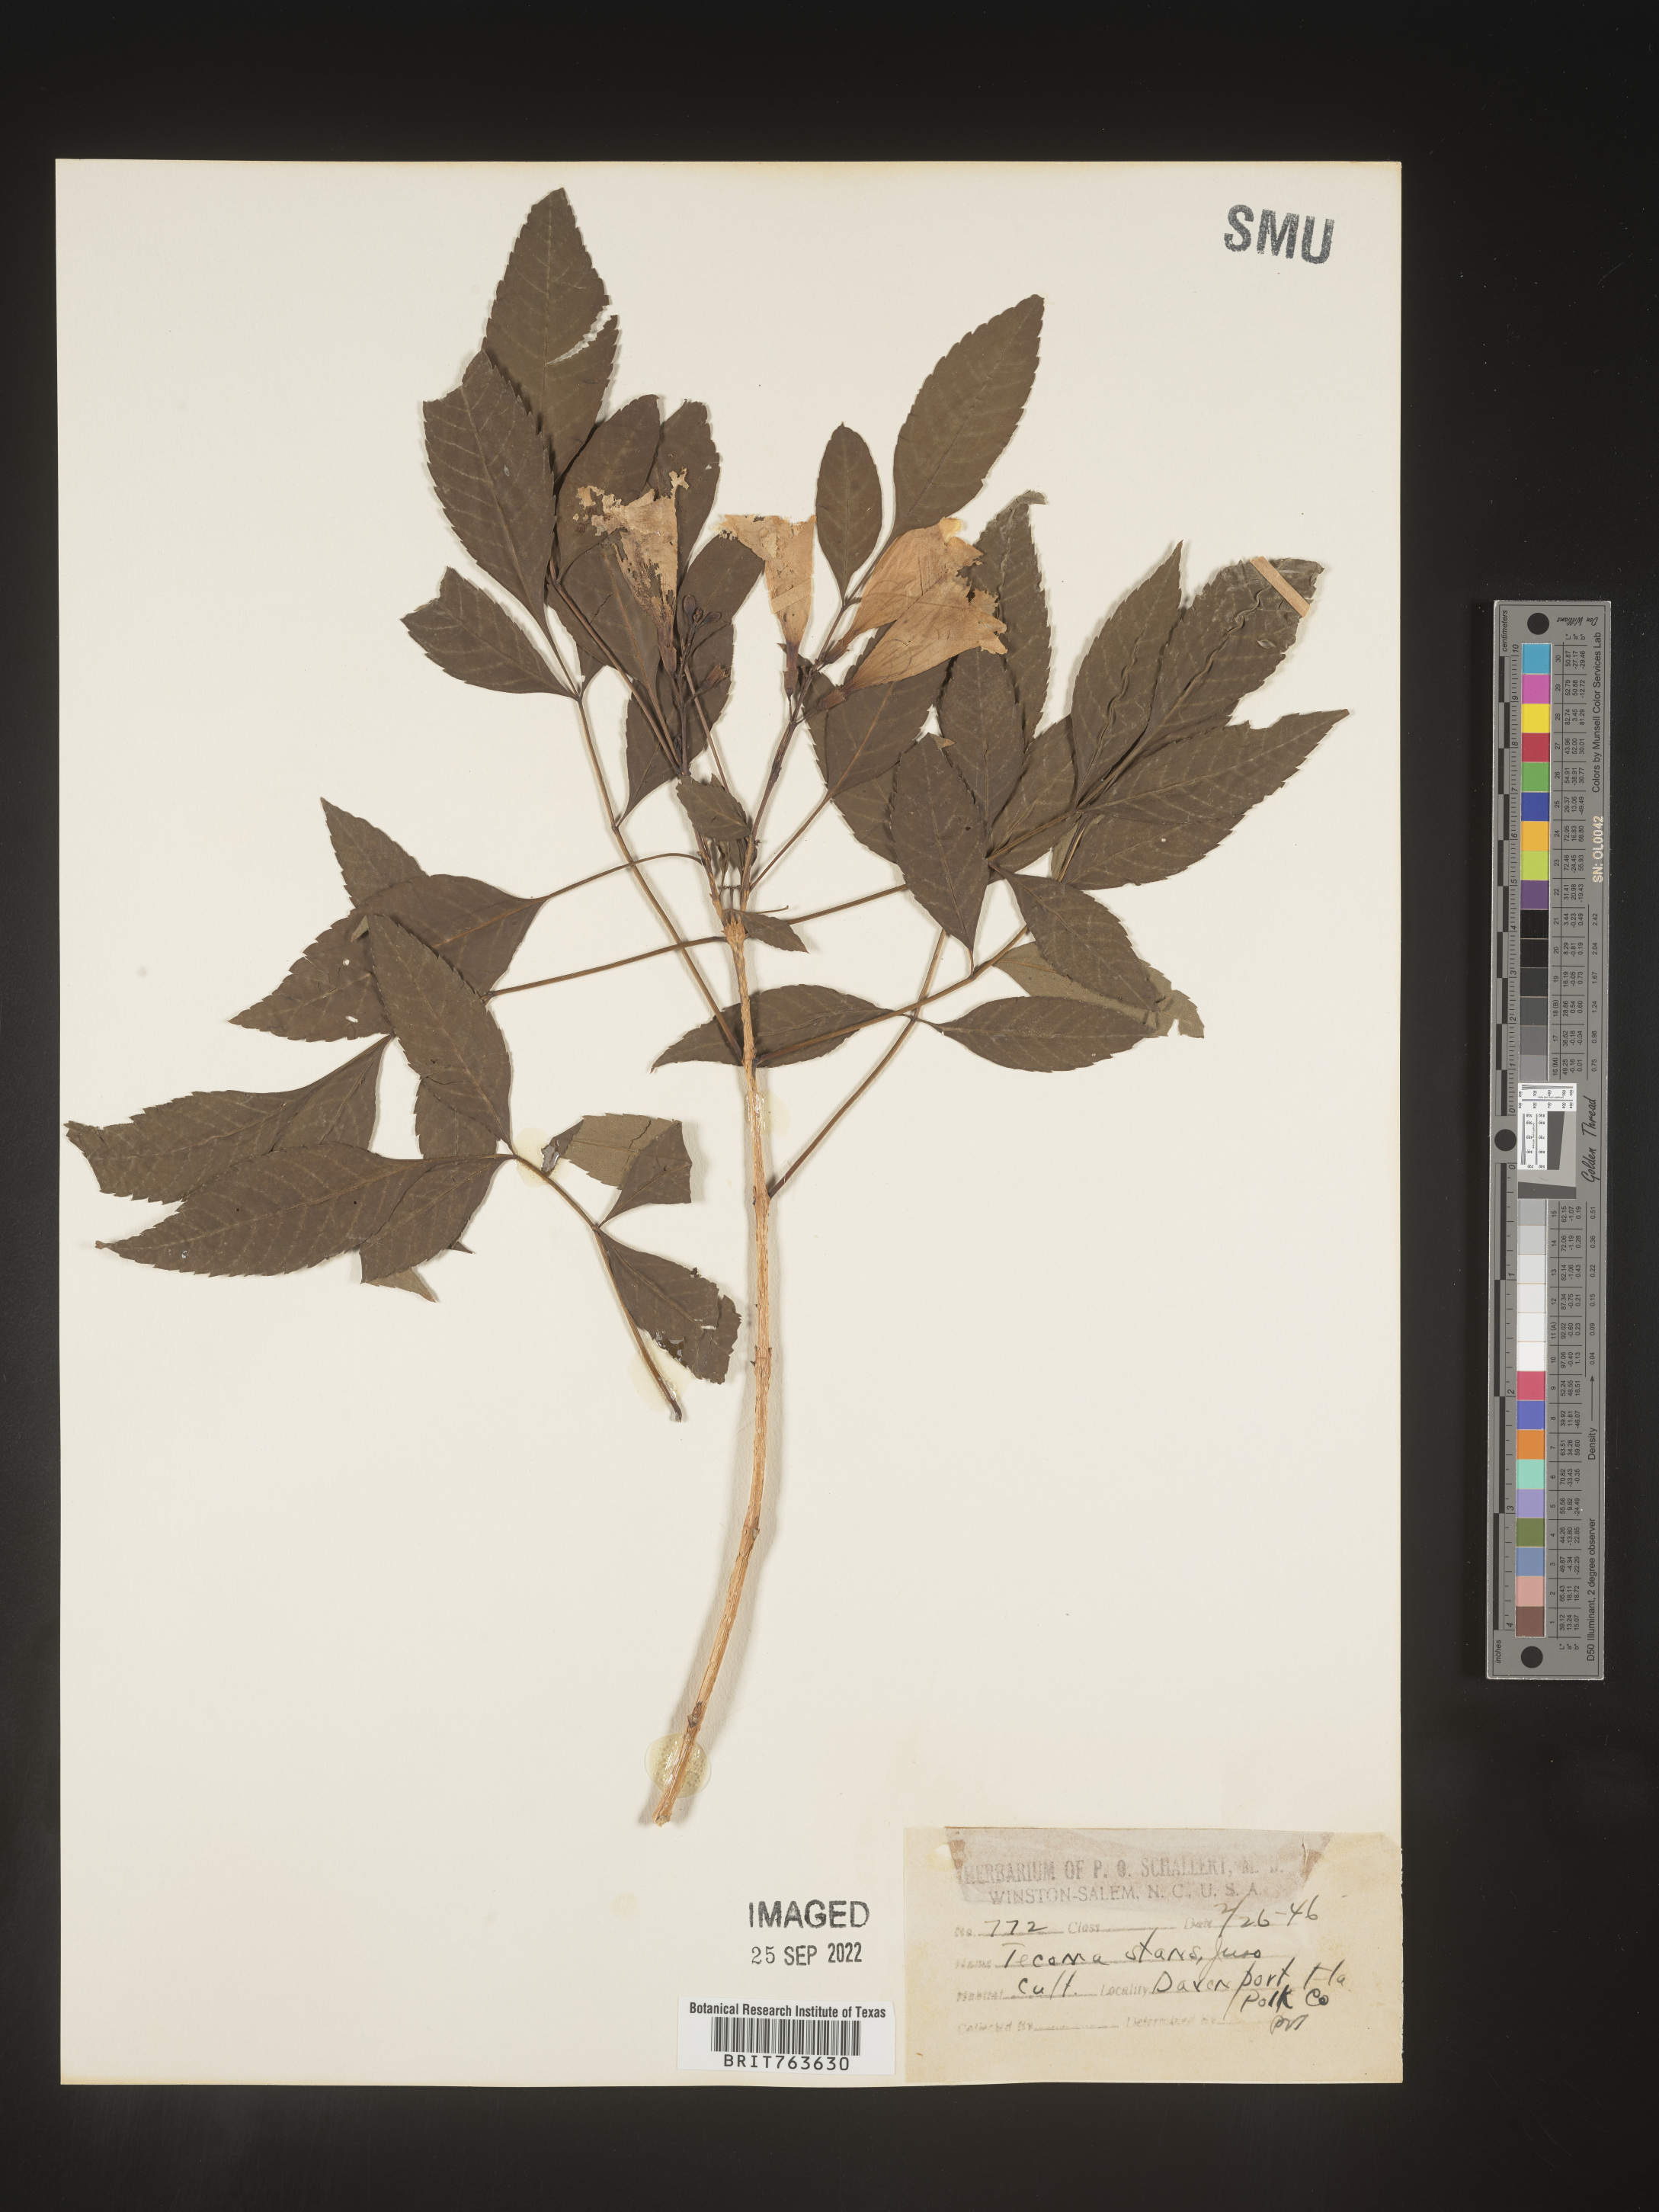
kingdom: Plantae
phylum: Tracheophyta
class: Magnoliopsida
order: Lamiales
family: Bignoniaceae
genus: Tecoma
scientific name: Tecoma
